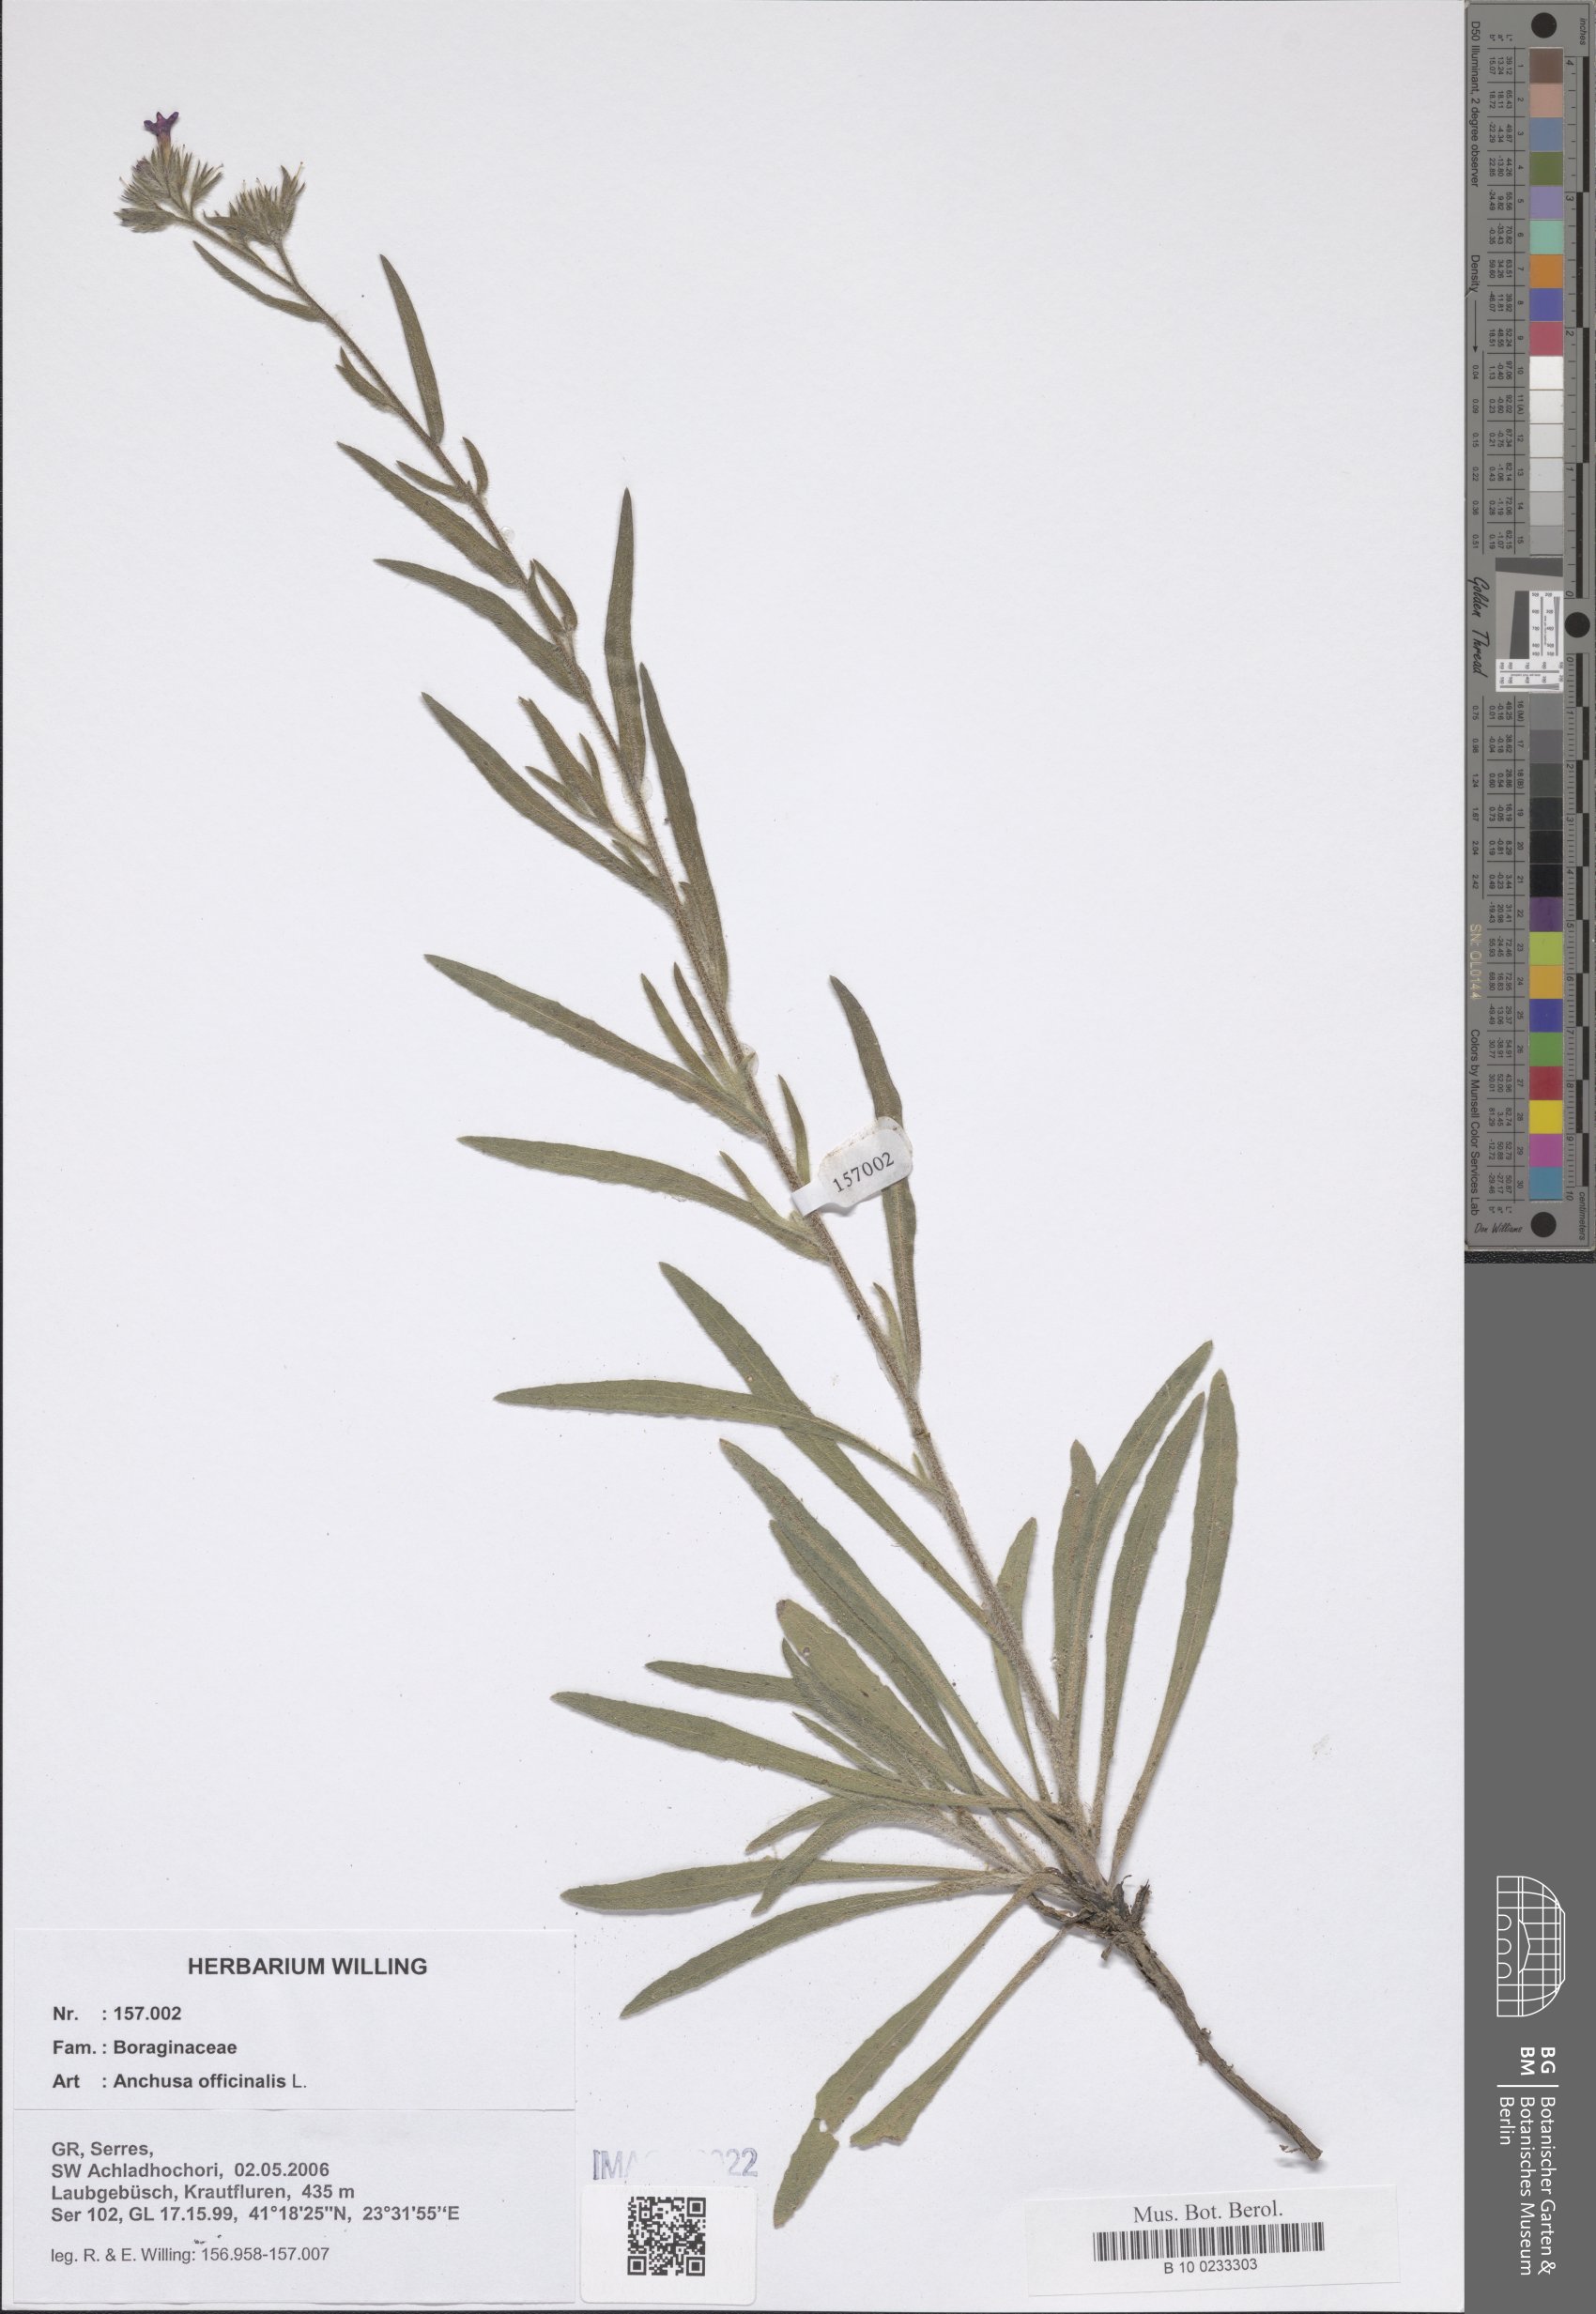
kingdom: Plantae
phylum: Tracheophyta
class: Magnoliopsida
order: Boraginales
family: Boraginaceae
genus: Anchusa
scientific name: Anchusa officinalis
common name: Alkanet
